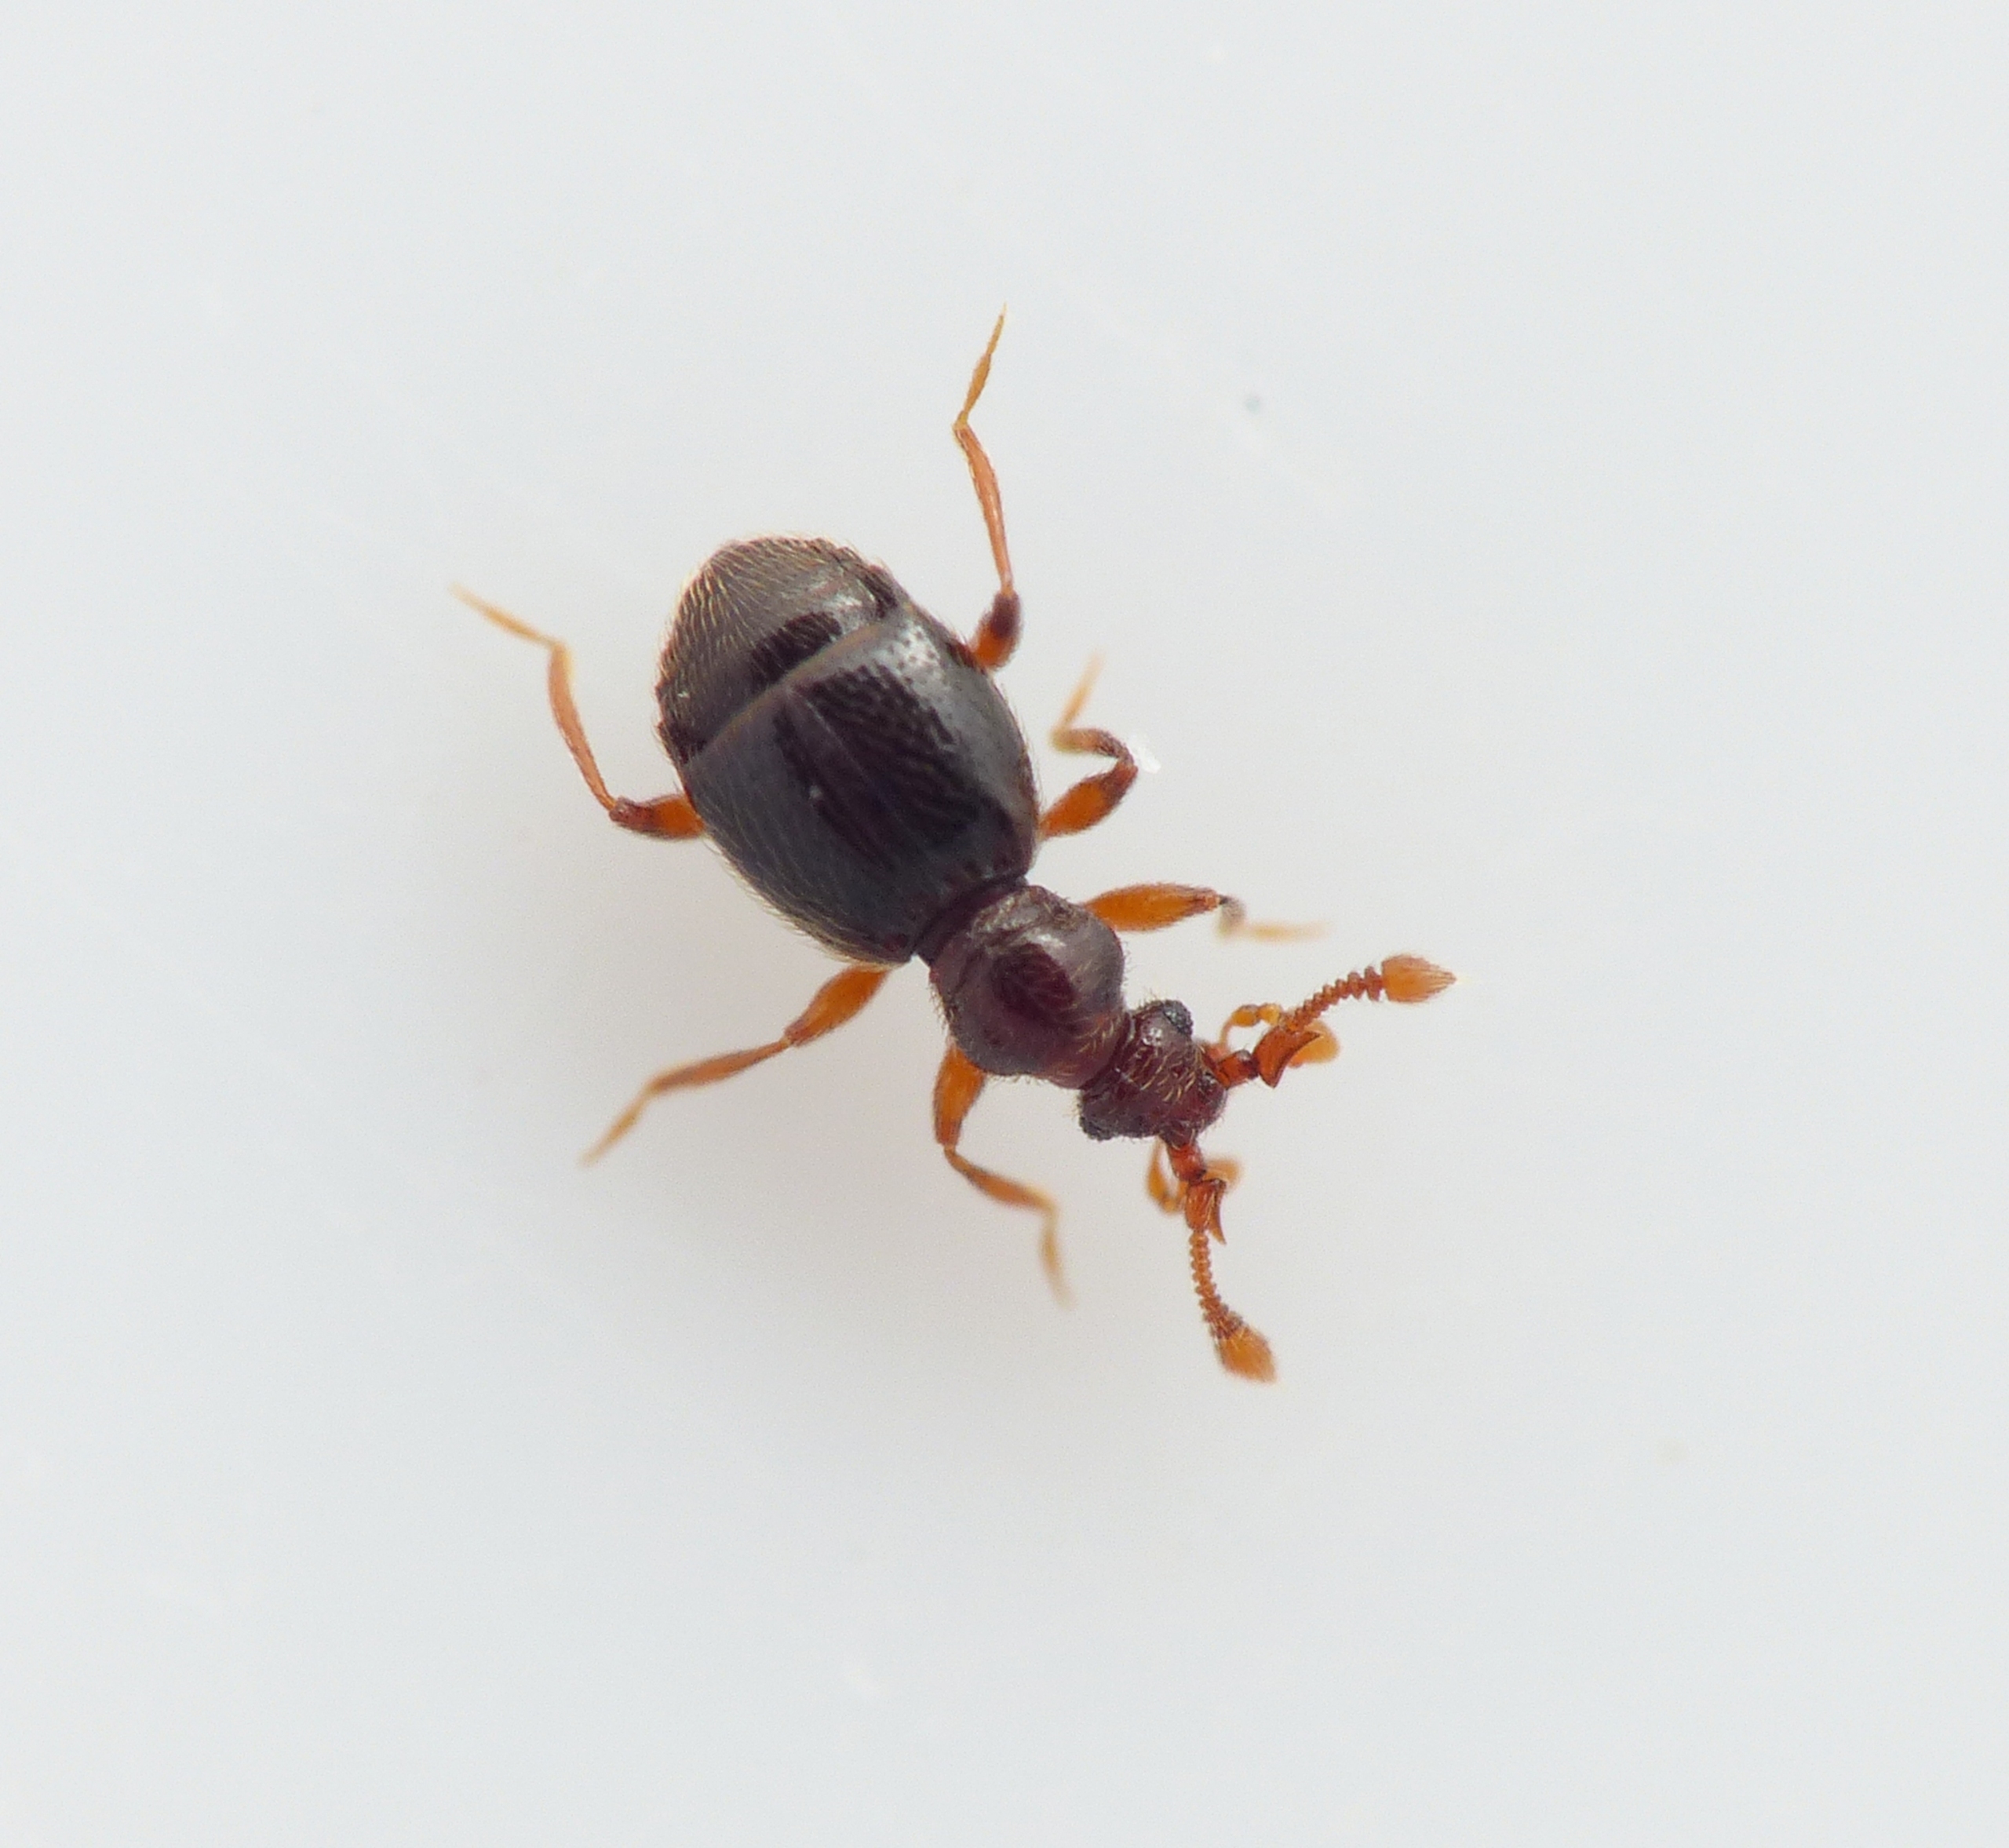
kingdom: Animalia
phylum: Arthropoda
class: Insecta
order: Coleoptera
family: Staphylinidae
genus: Bythinus
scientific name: Bythinus burrellii
